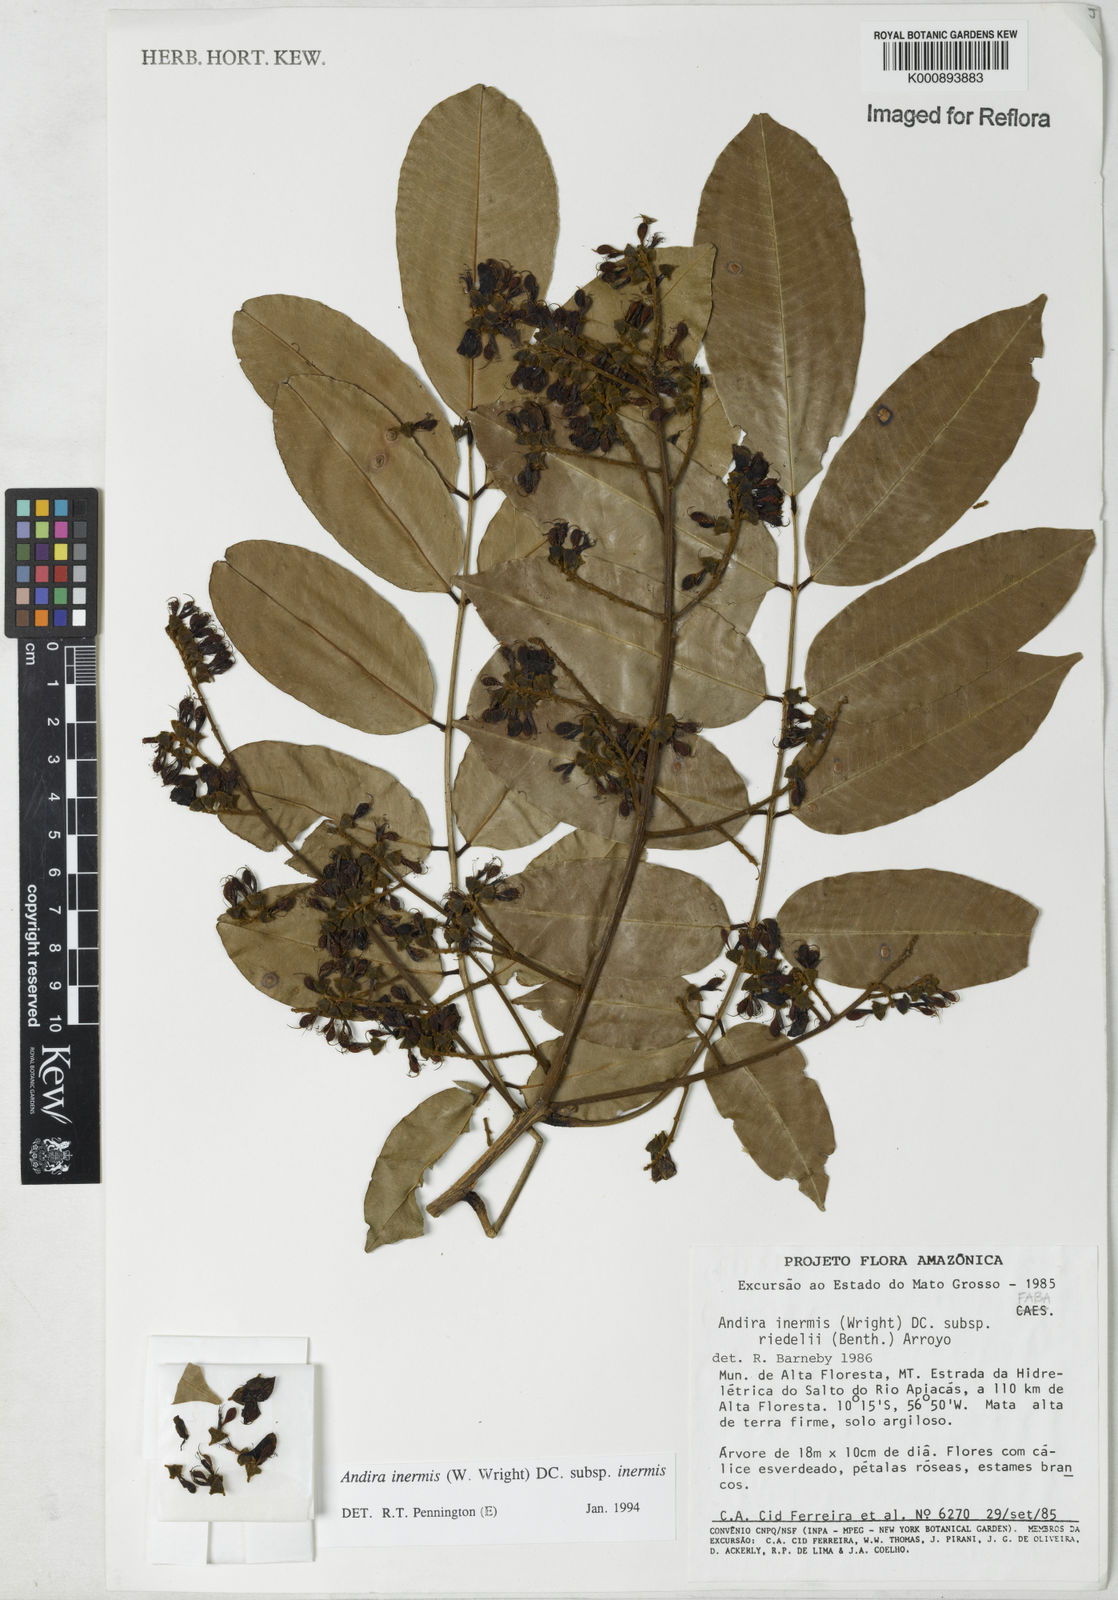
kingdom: Plantae
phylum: Tracheophyta
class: Magnoliopsida
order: Fabales
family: Fabaceae
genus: Andira
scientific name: Andira inermis
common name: Angelin
